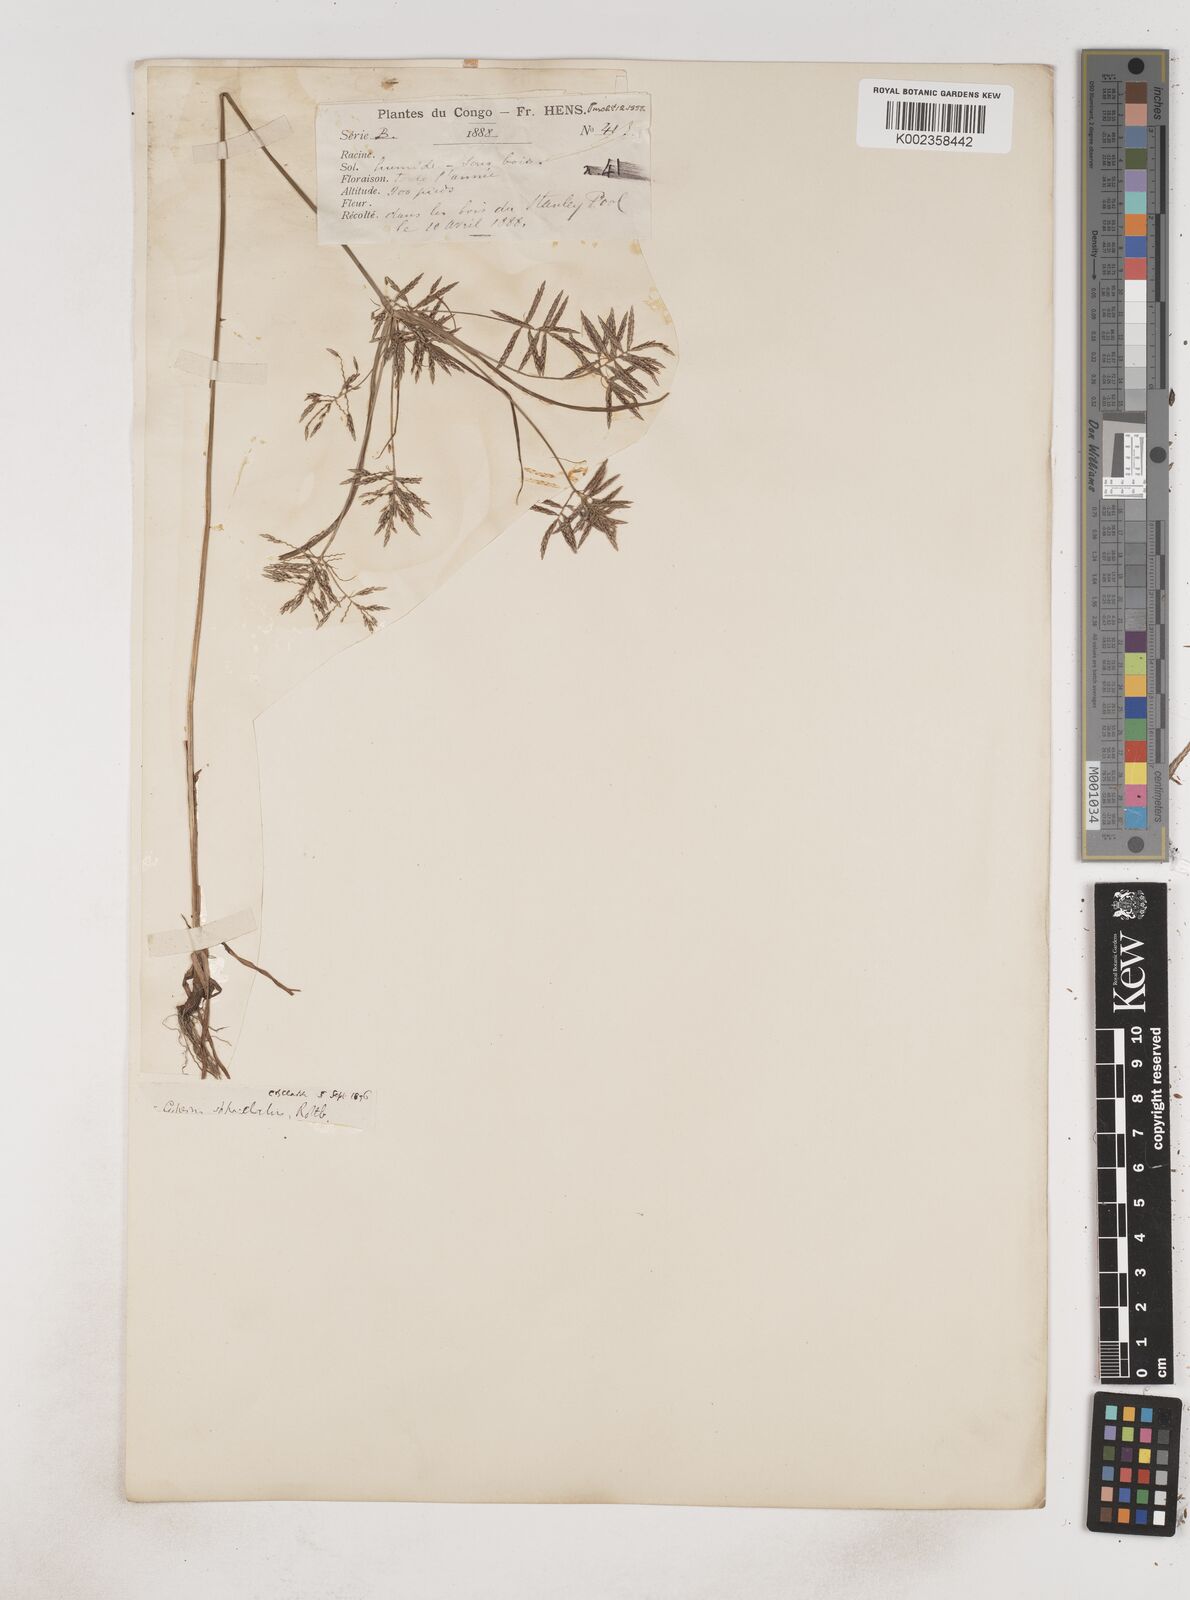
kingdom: Plantae
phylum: Tracheophyta
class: Liliopsida
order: Poales
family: Cyperaceae
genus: Cyperus
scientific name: Cyperus sphacelatus
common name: Roadside flatsedge
